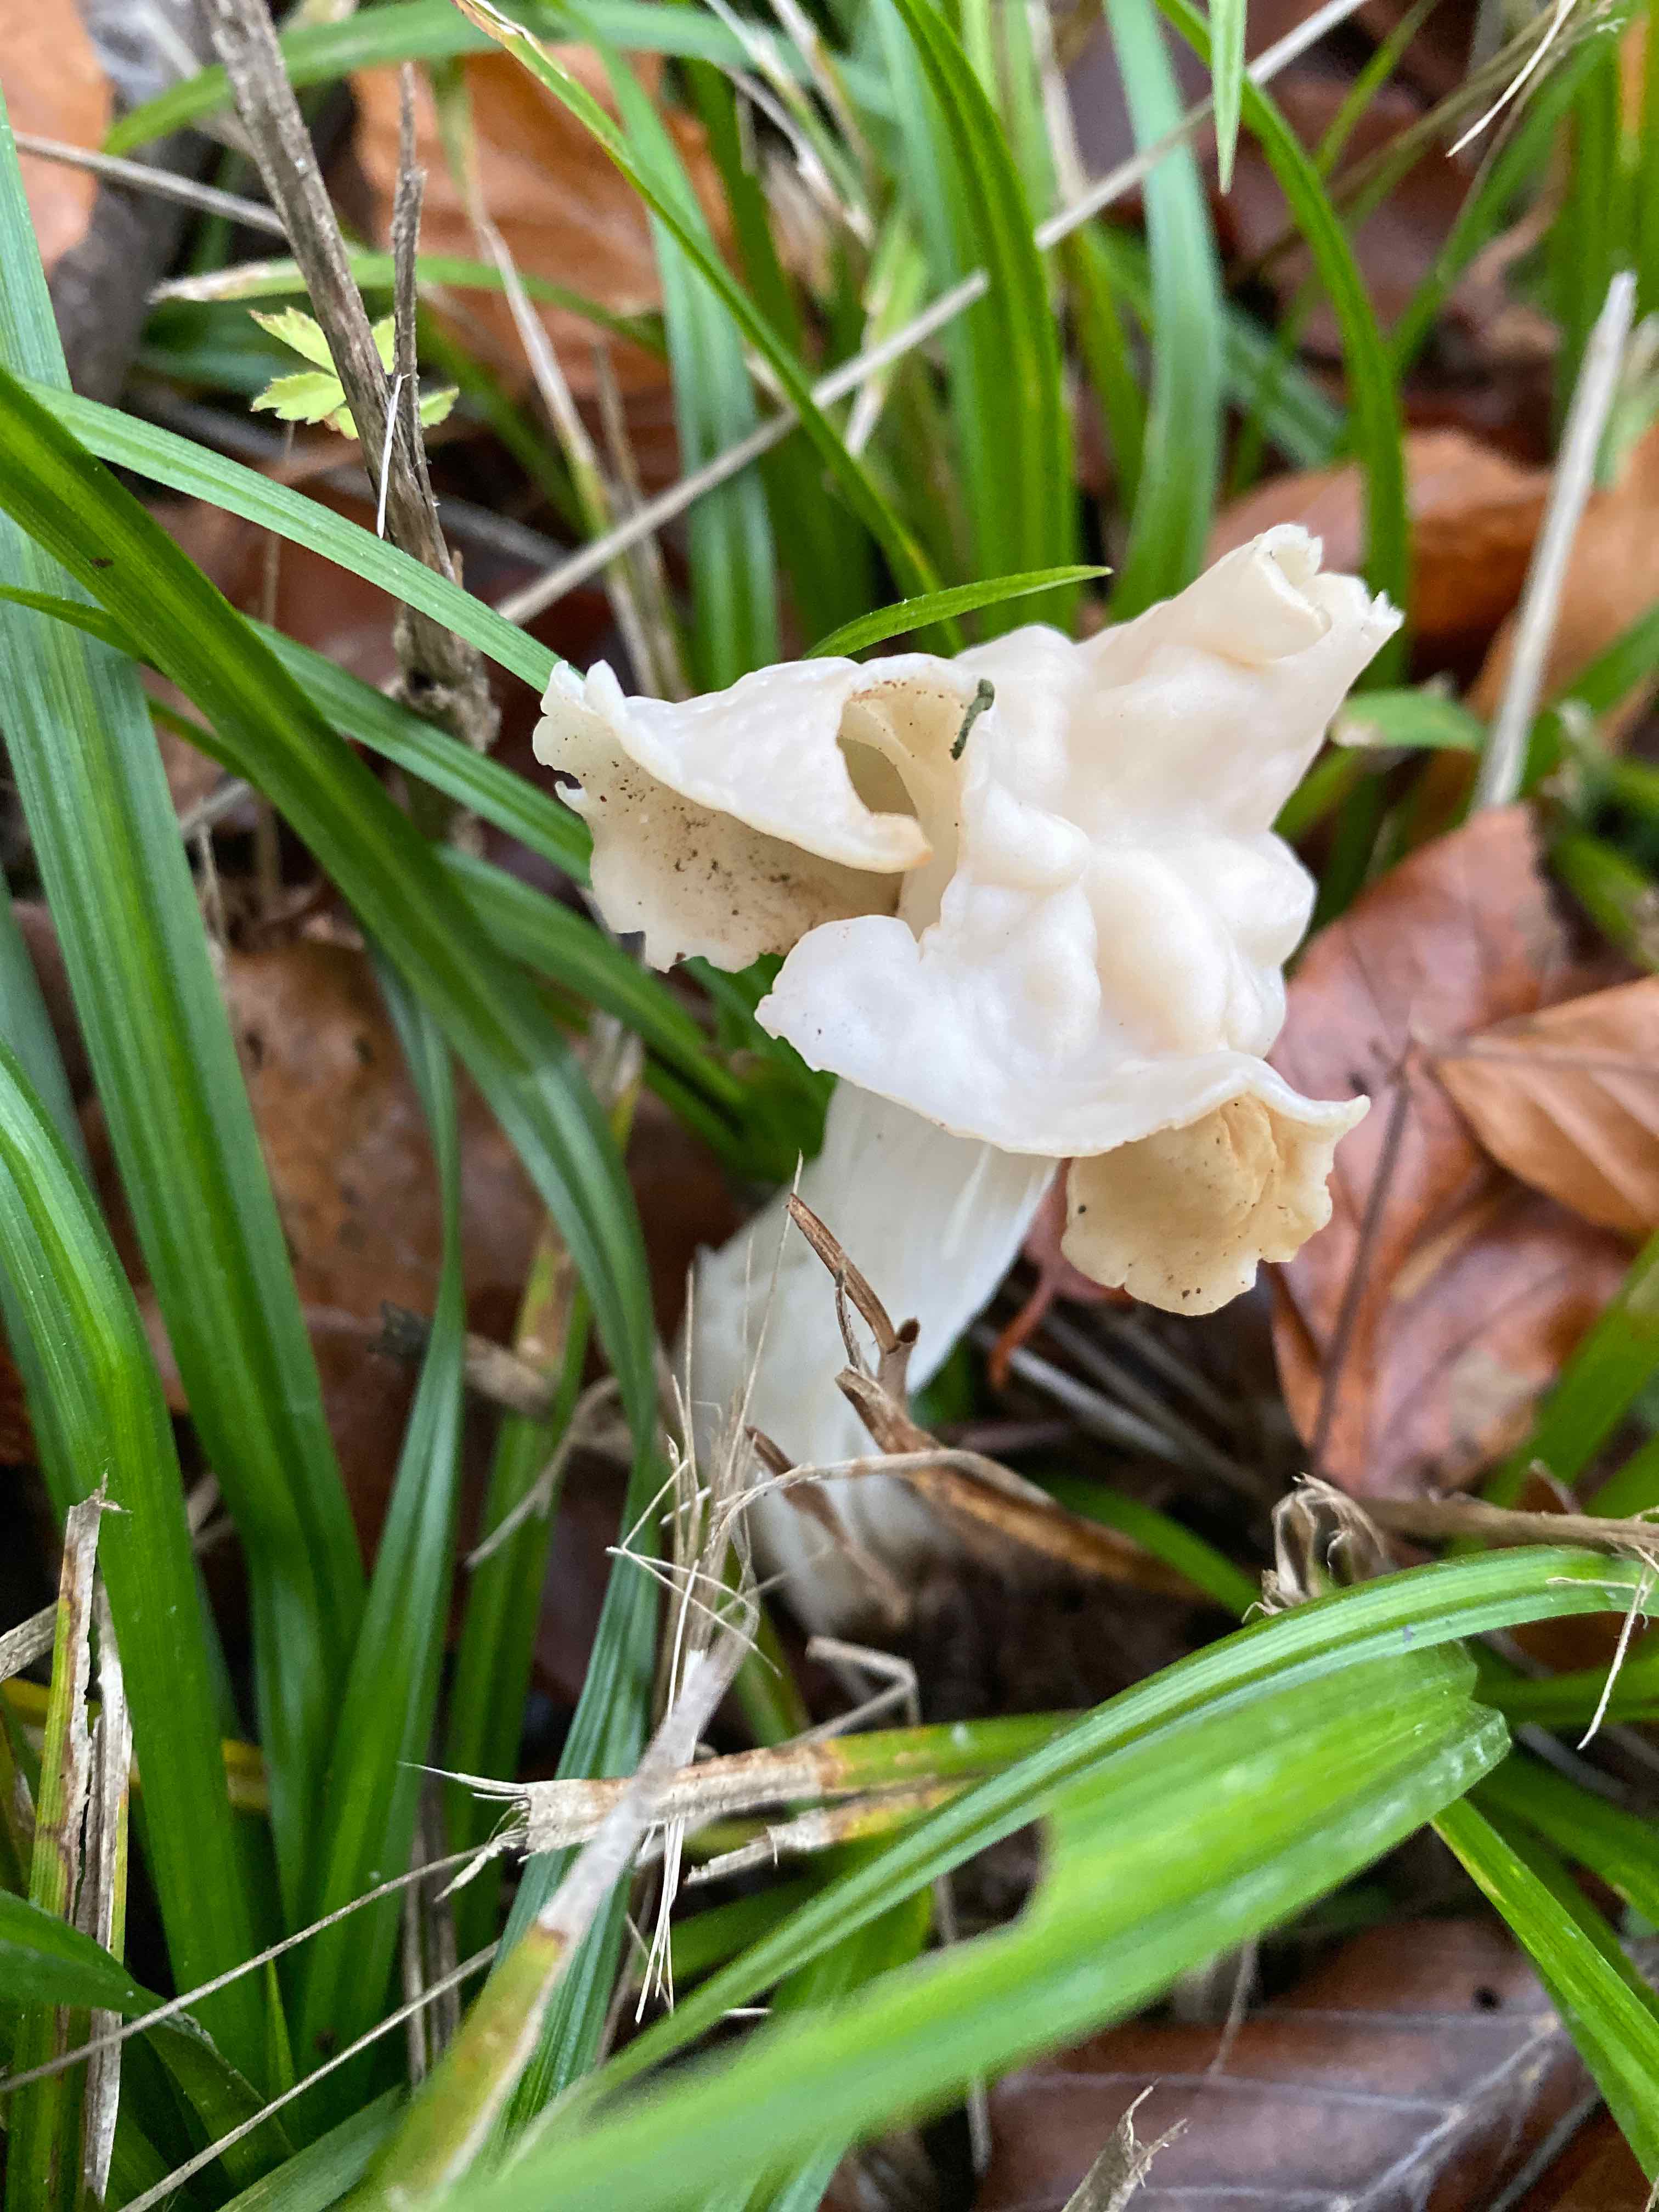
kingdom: Fungi
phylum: Ascomycota
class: Pezizomycetes
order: Pezizales
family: Helvellaceae
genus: Helvella
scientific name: Helvella crispa
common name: kruset foldhat
